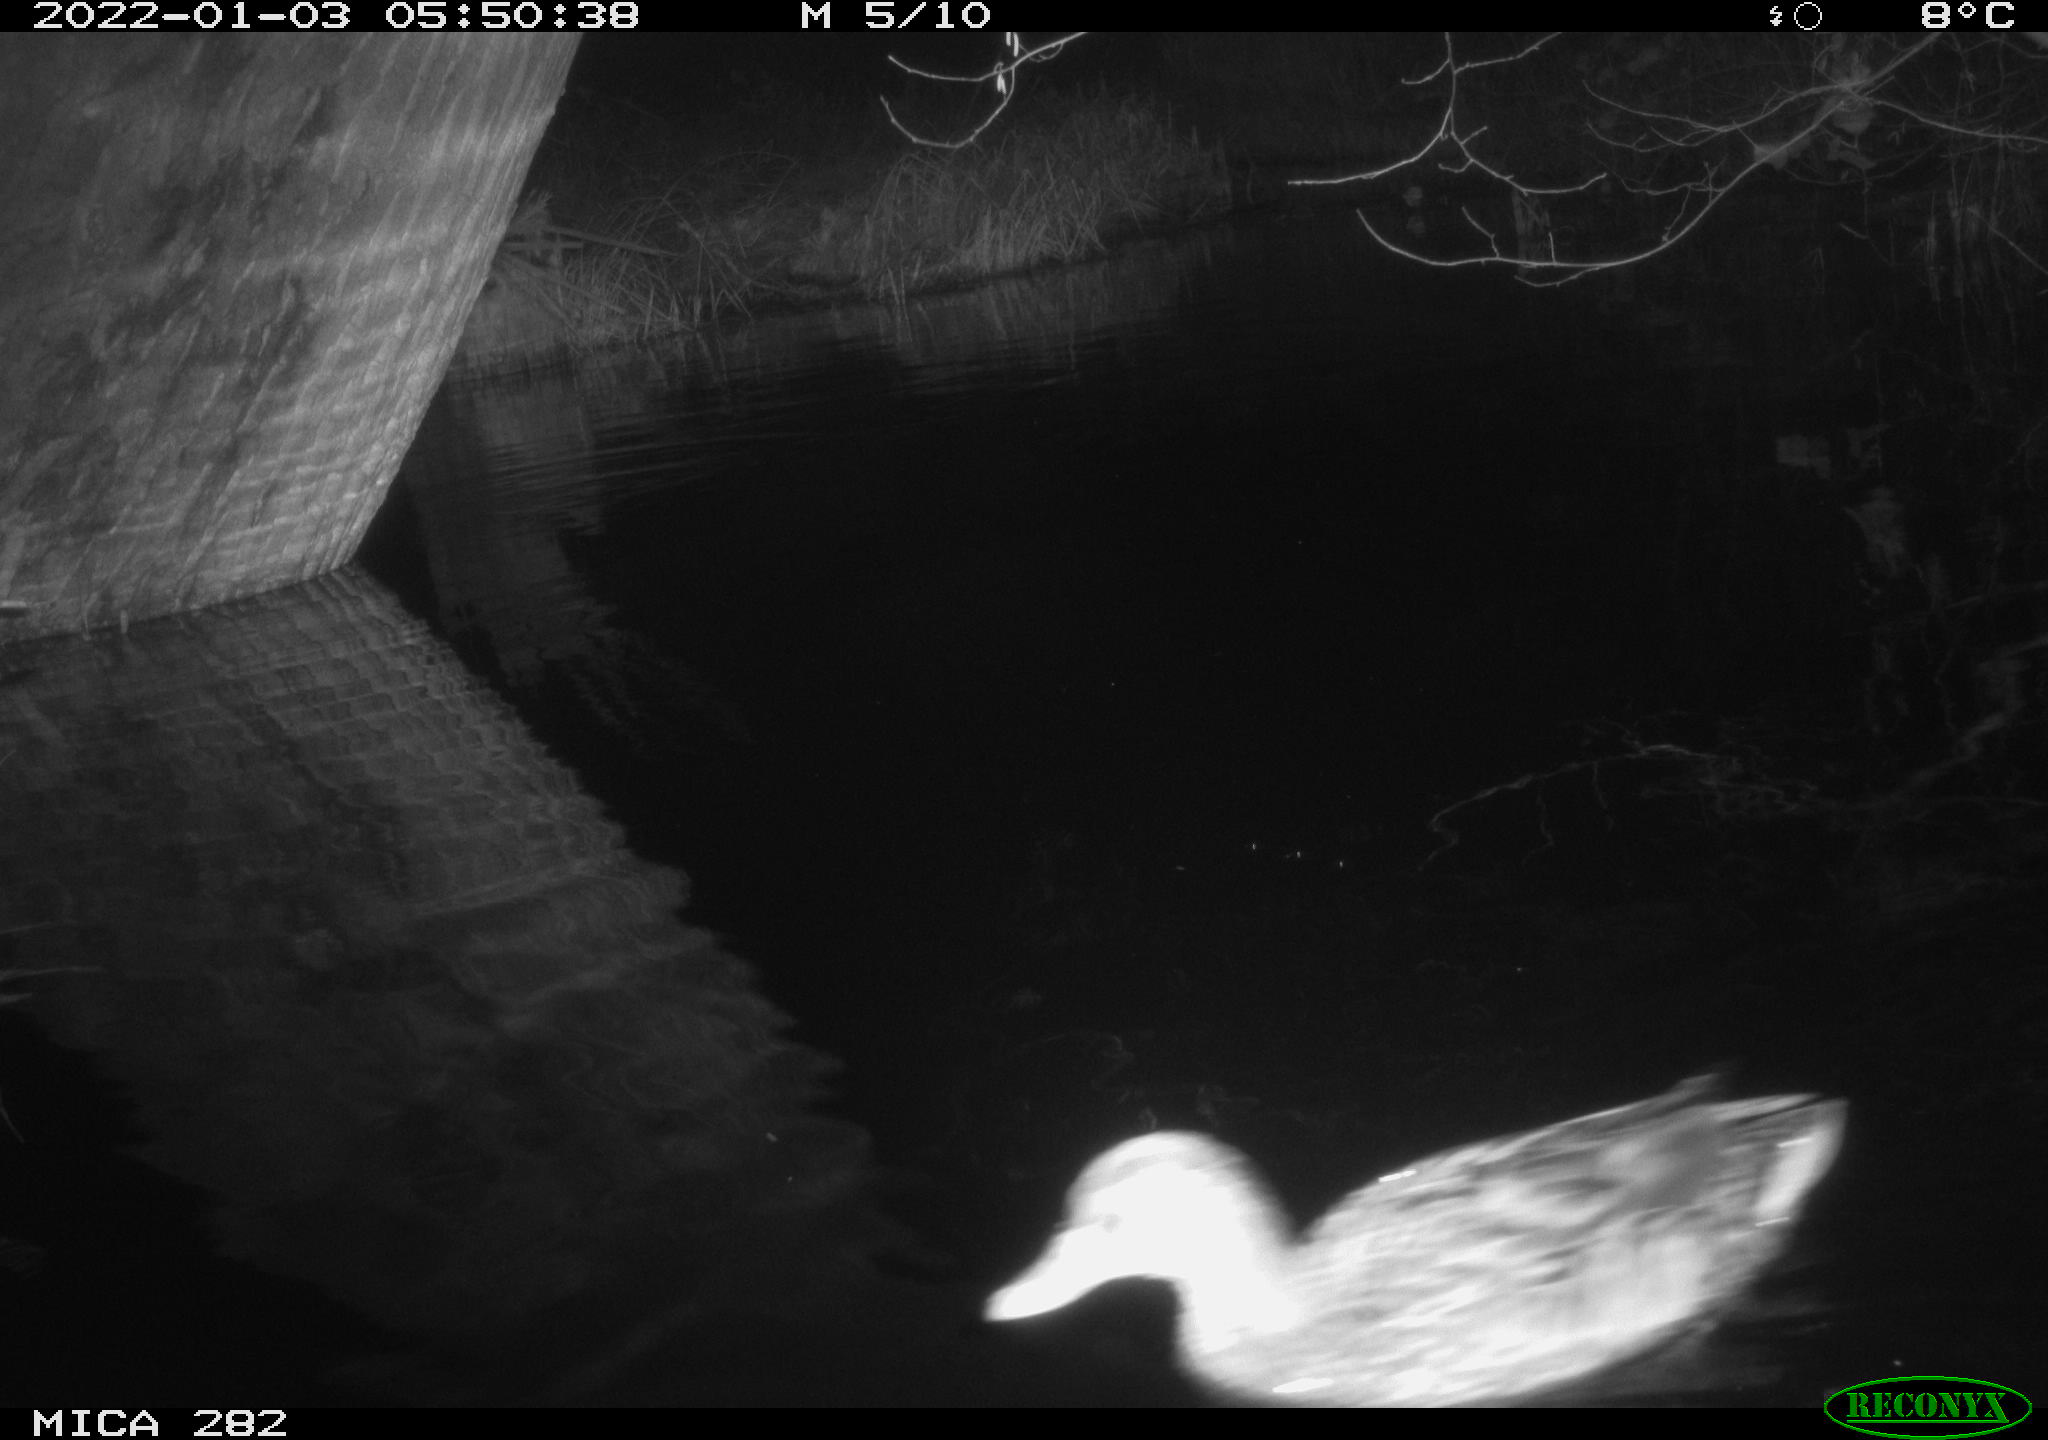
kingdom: Animalia
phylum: Chordata
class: Aves
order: Anseriformes
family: Anatidae
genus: Mareca
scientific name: Mareca strepera
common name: Gadwall
